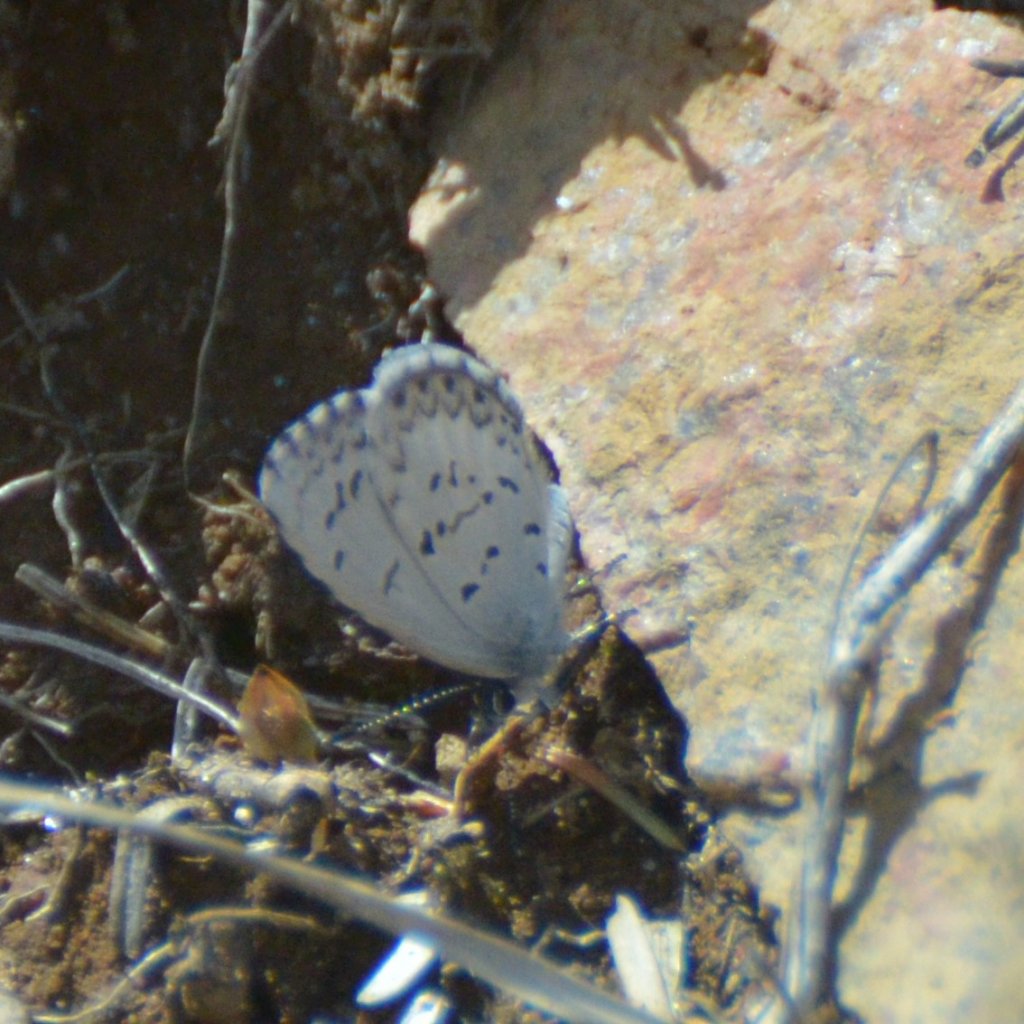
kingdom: Animalia
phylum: Arthropoda
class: Insecta
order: Lepidoptera
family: Lycaenidae
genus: Celastrina
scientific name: Celastrina lucia
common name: Northern Spring Azure
